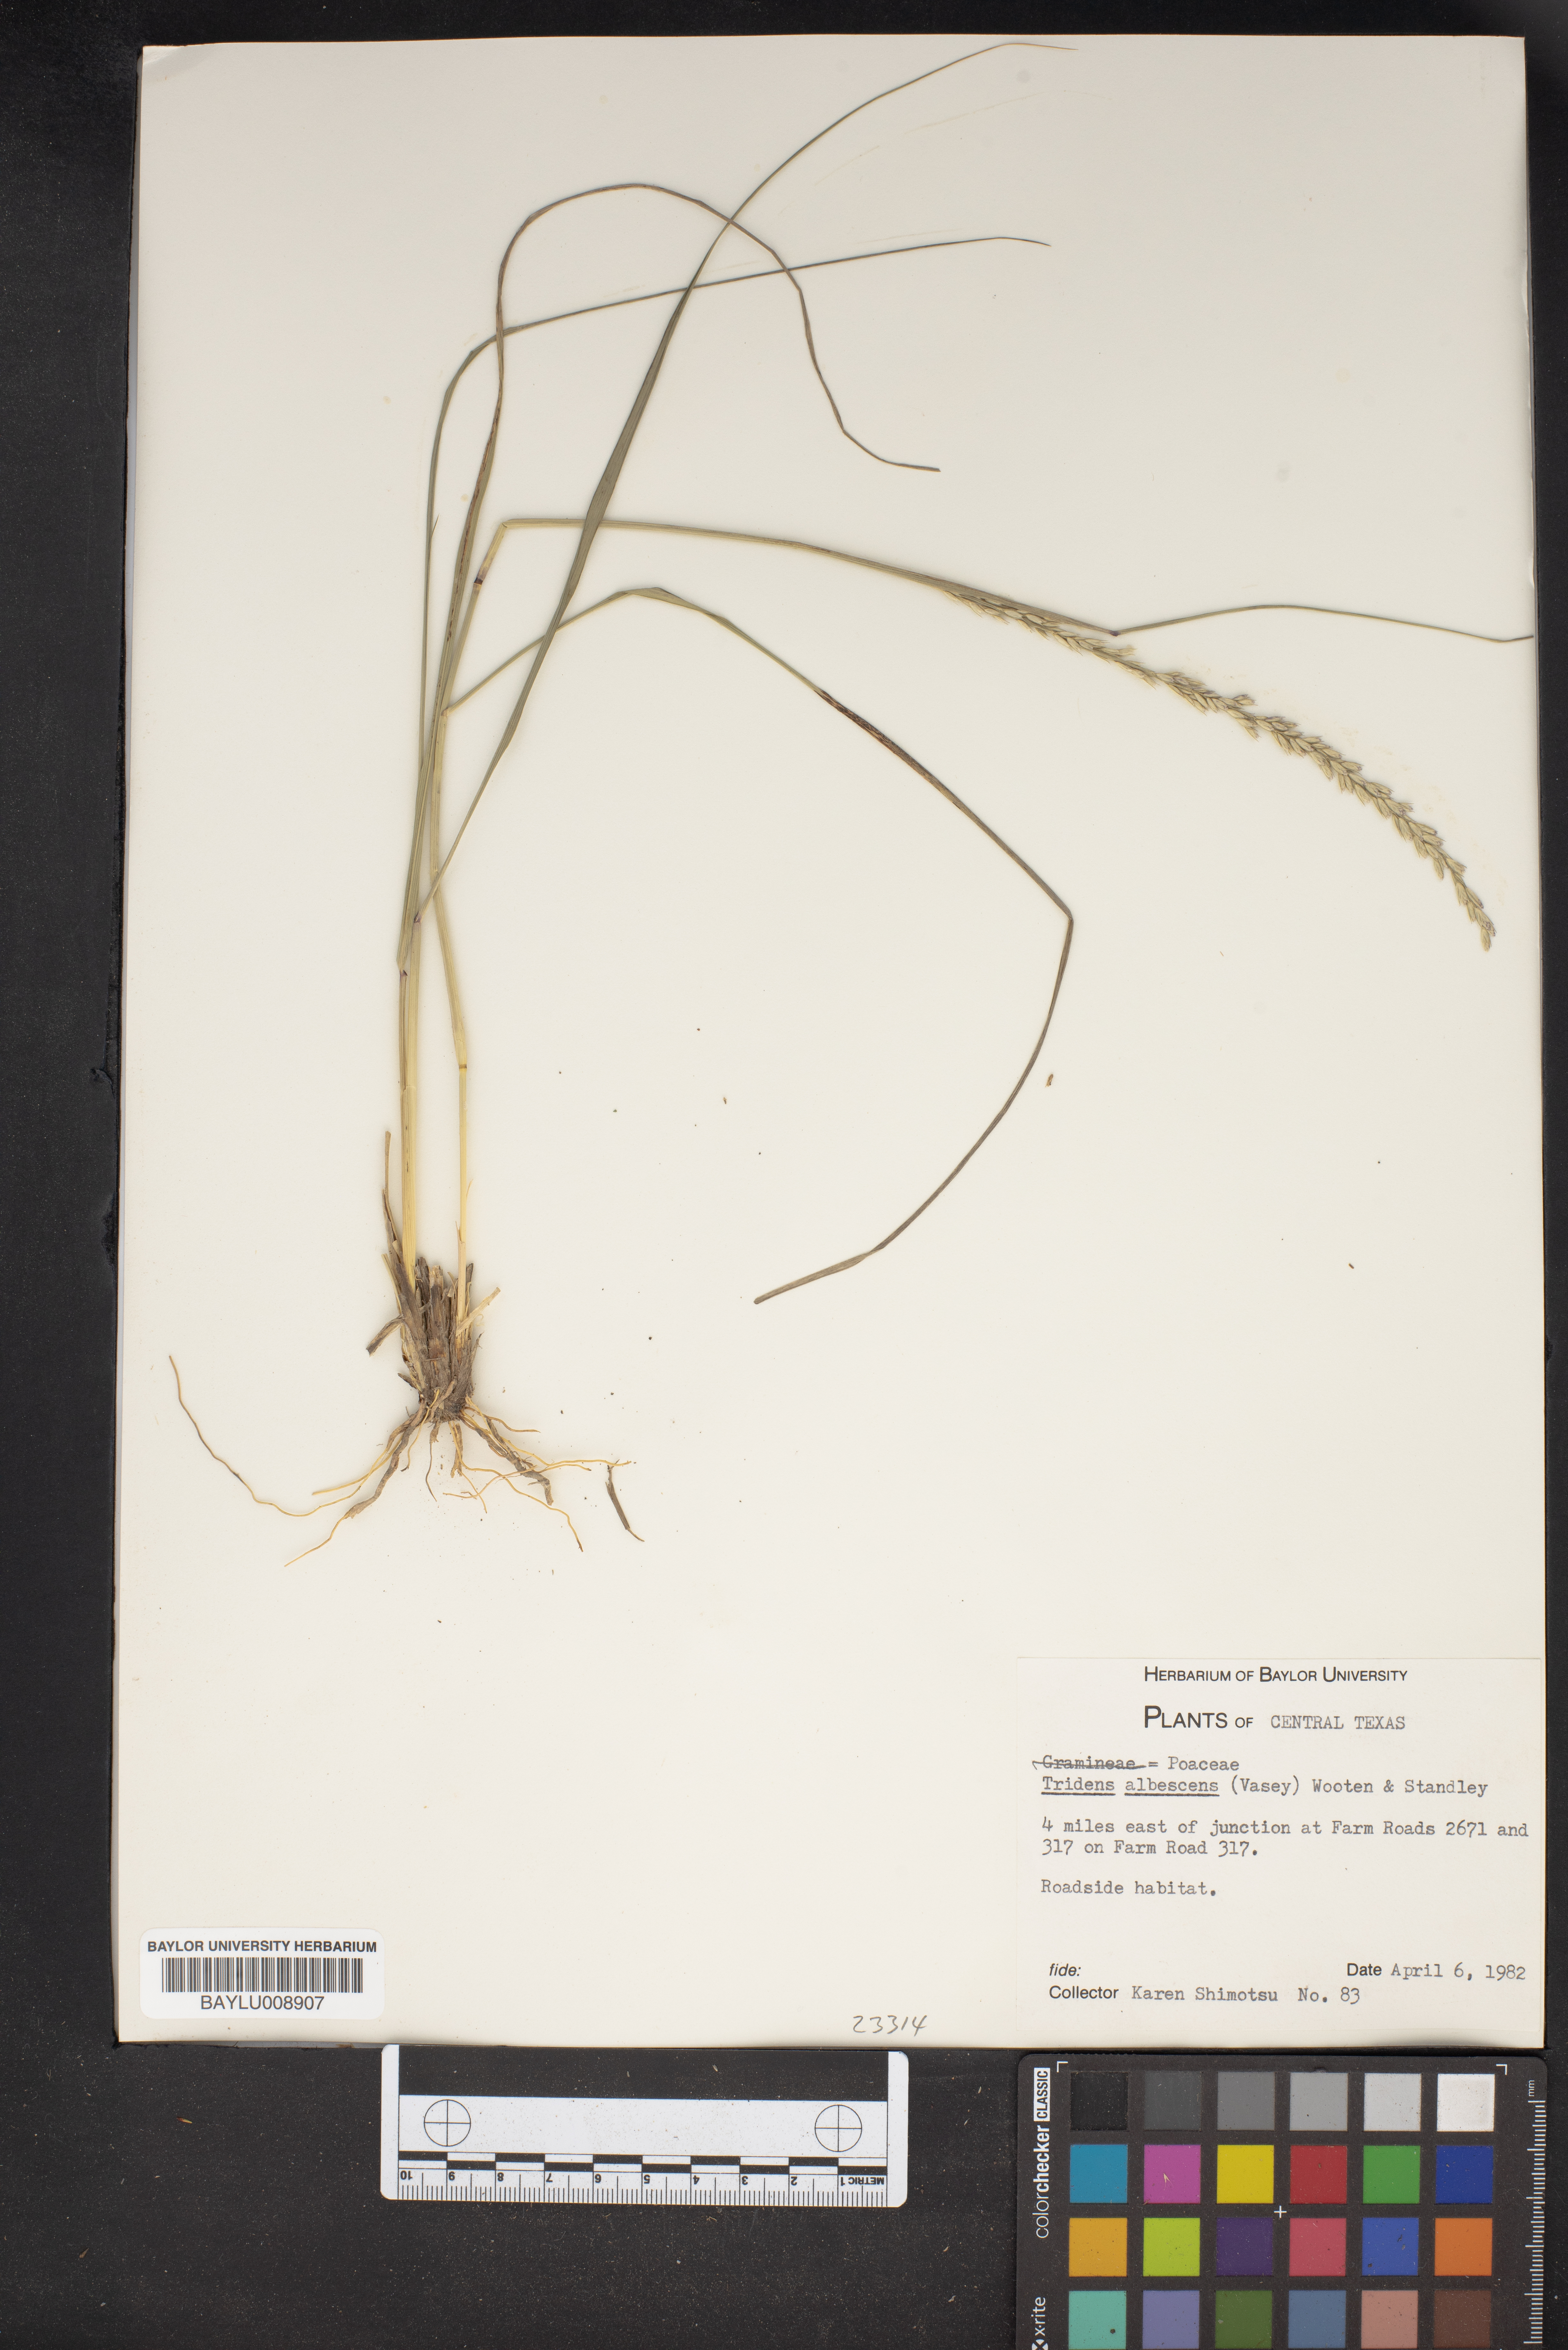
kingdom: Plantae
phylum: Tracheophyta
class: Liliopsida
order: Poales
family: Poaceae
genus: Tridens
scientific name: Tridens albescens
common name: White tridens
